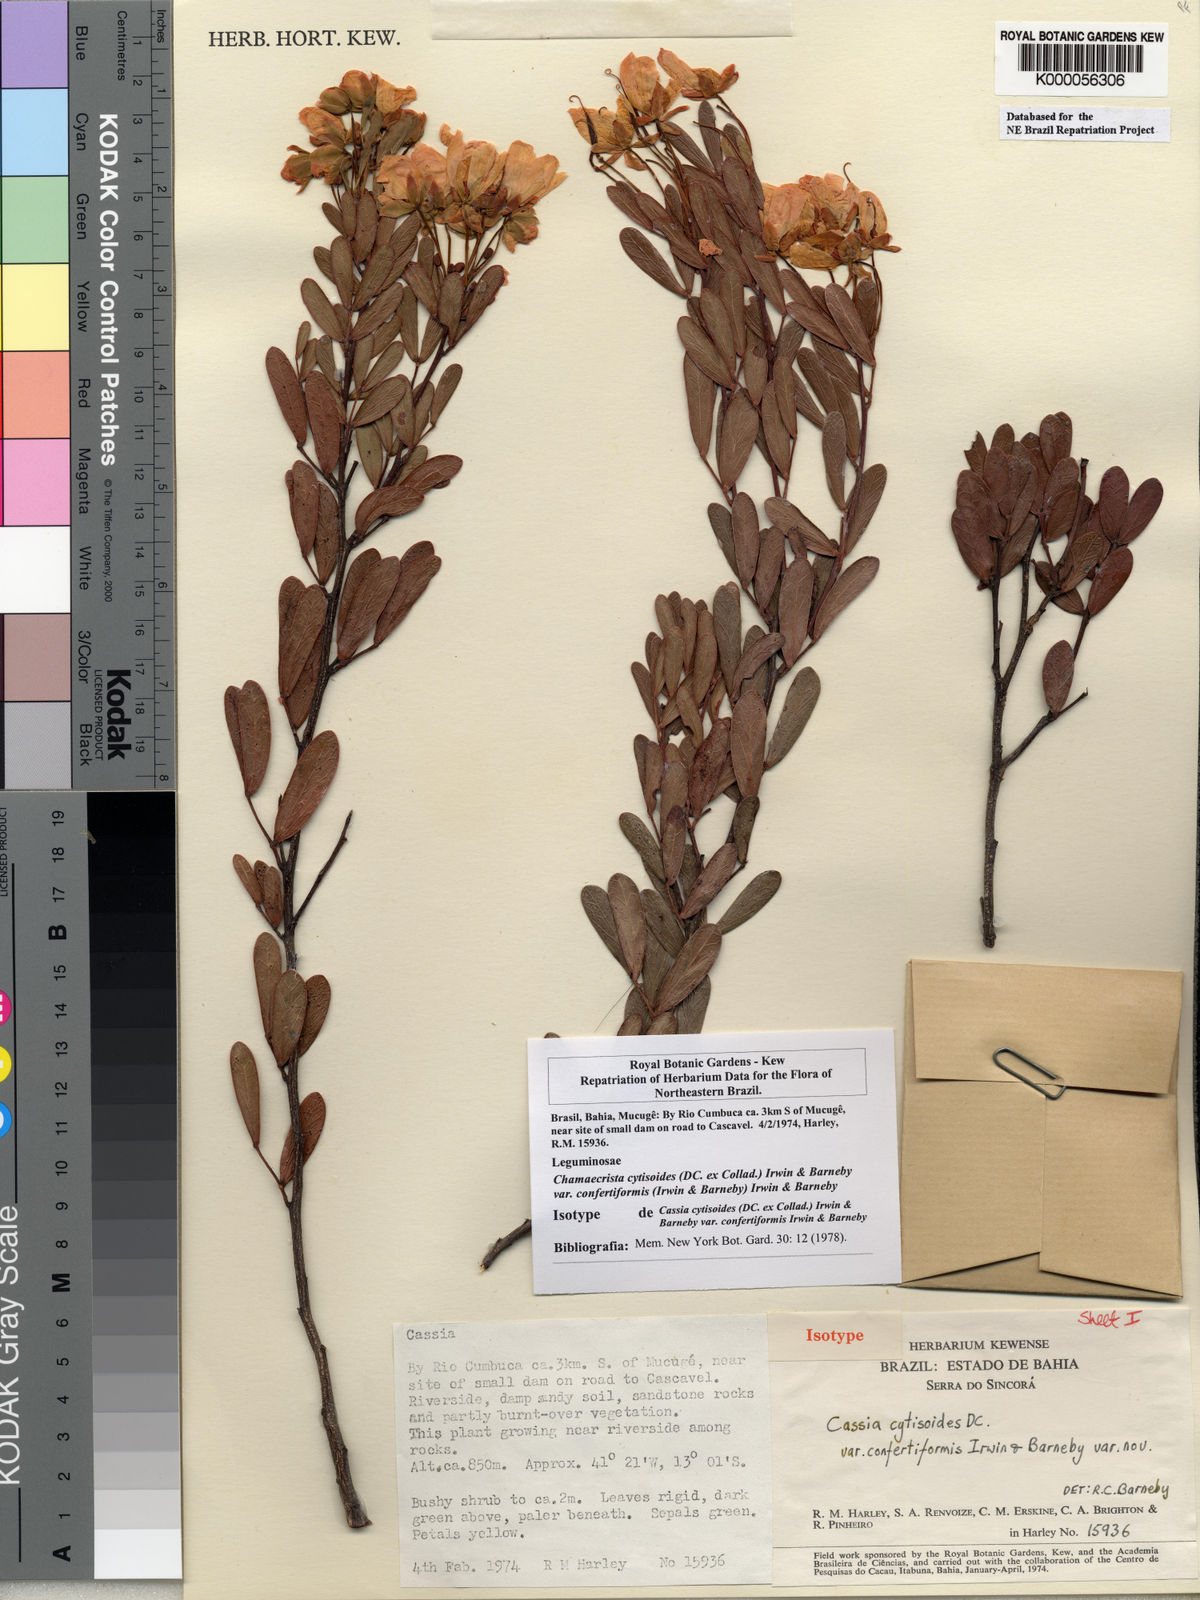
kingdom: Plantae
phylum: Tracheophyta
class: Magnoliopsida
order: Fabales
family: Fabaceae
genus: Chamaecrista
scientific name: Chamaecrista confertiformis
